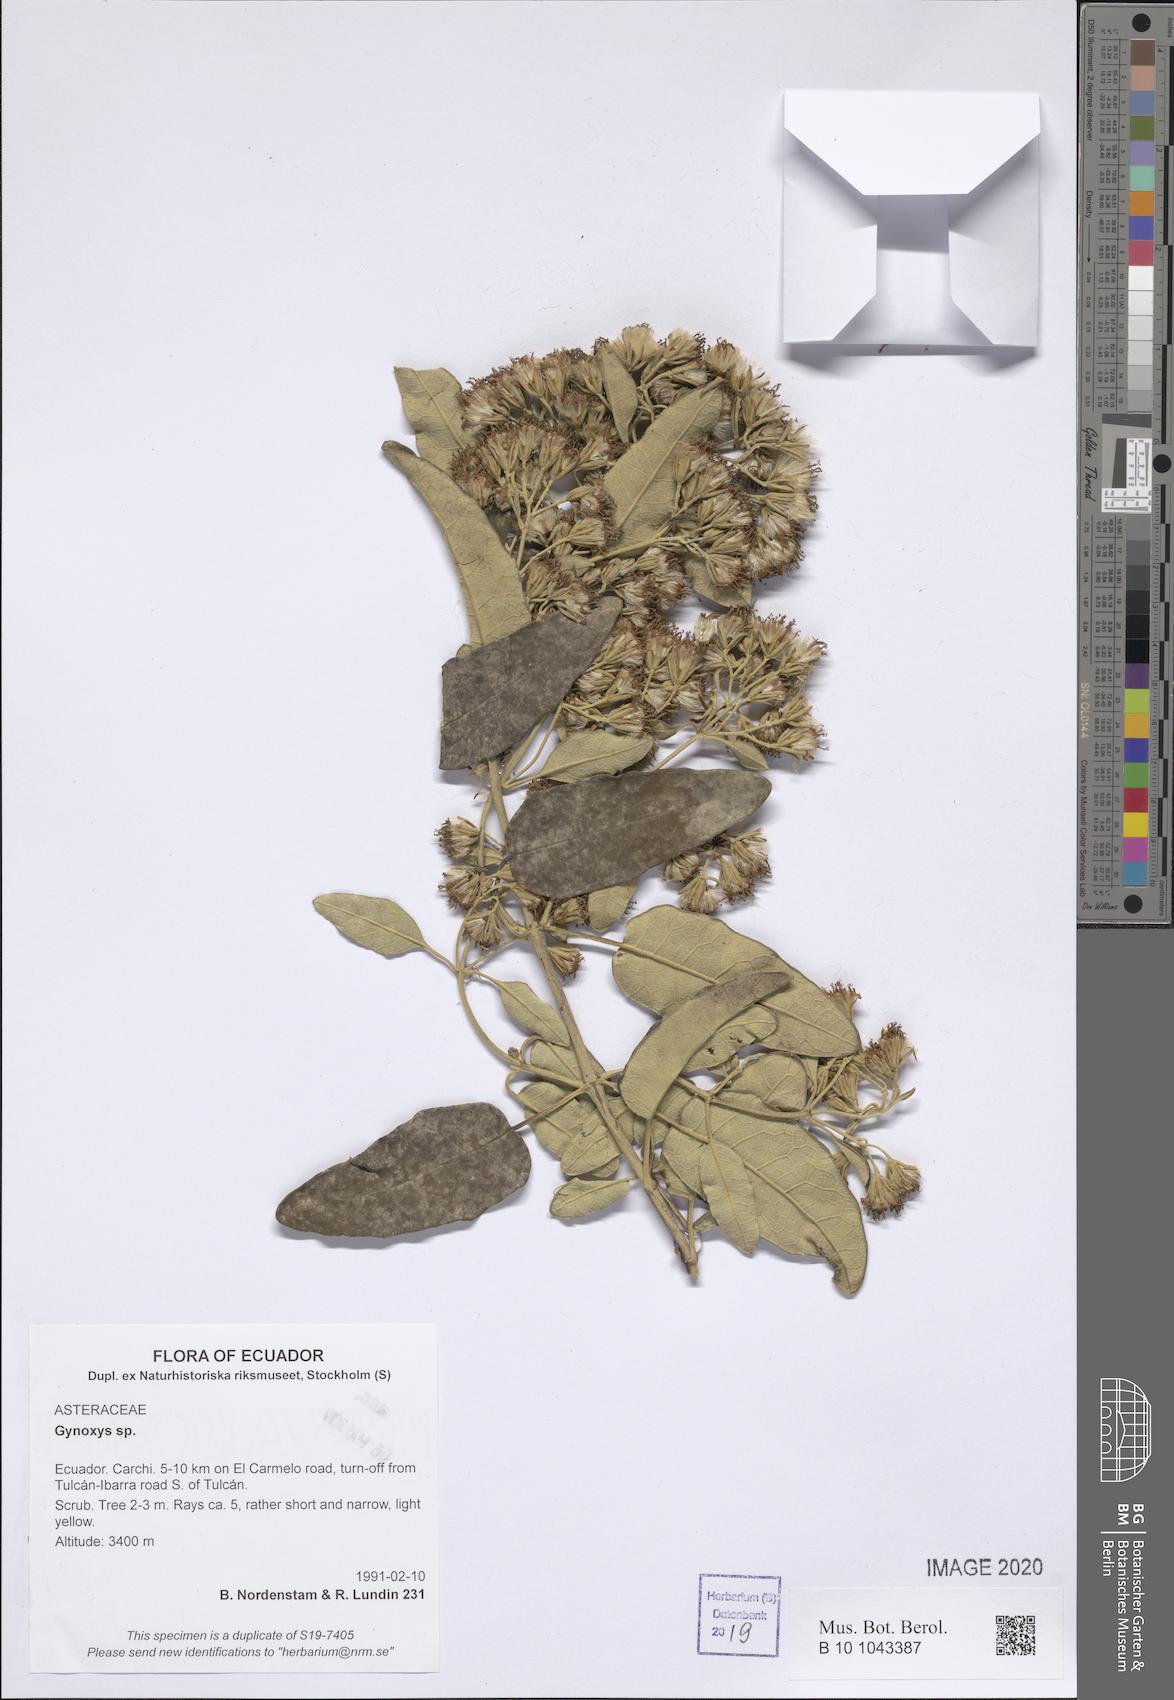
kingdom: Plantae
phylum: Tracheophyta
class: Magnoliopsida
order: Asterales
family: Asteraceae
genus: Gynoxys
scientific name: Gynoxys
